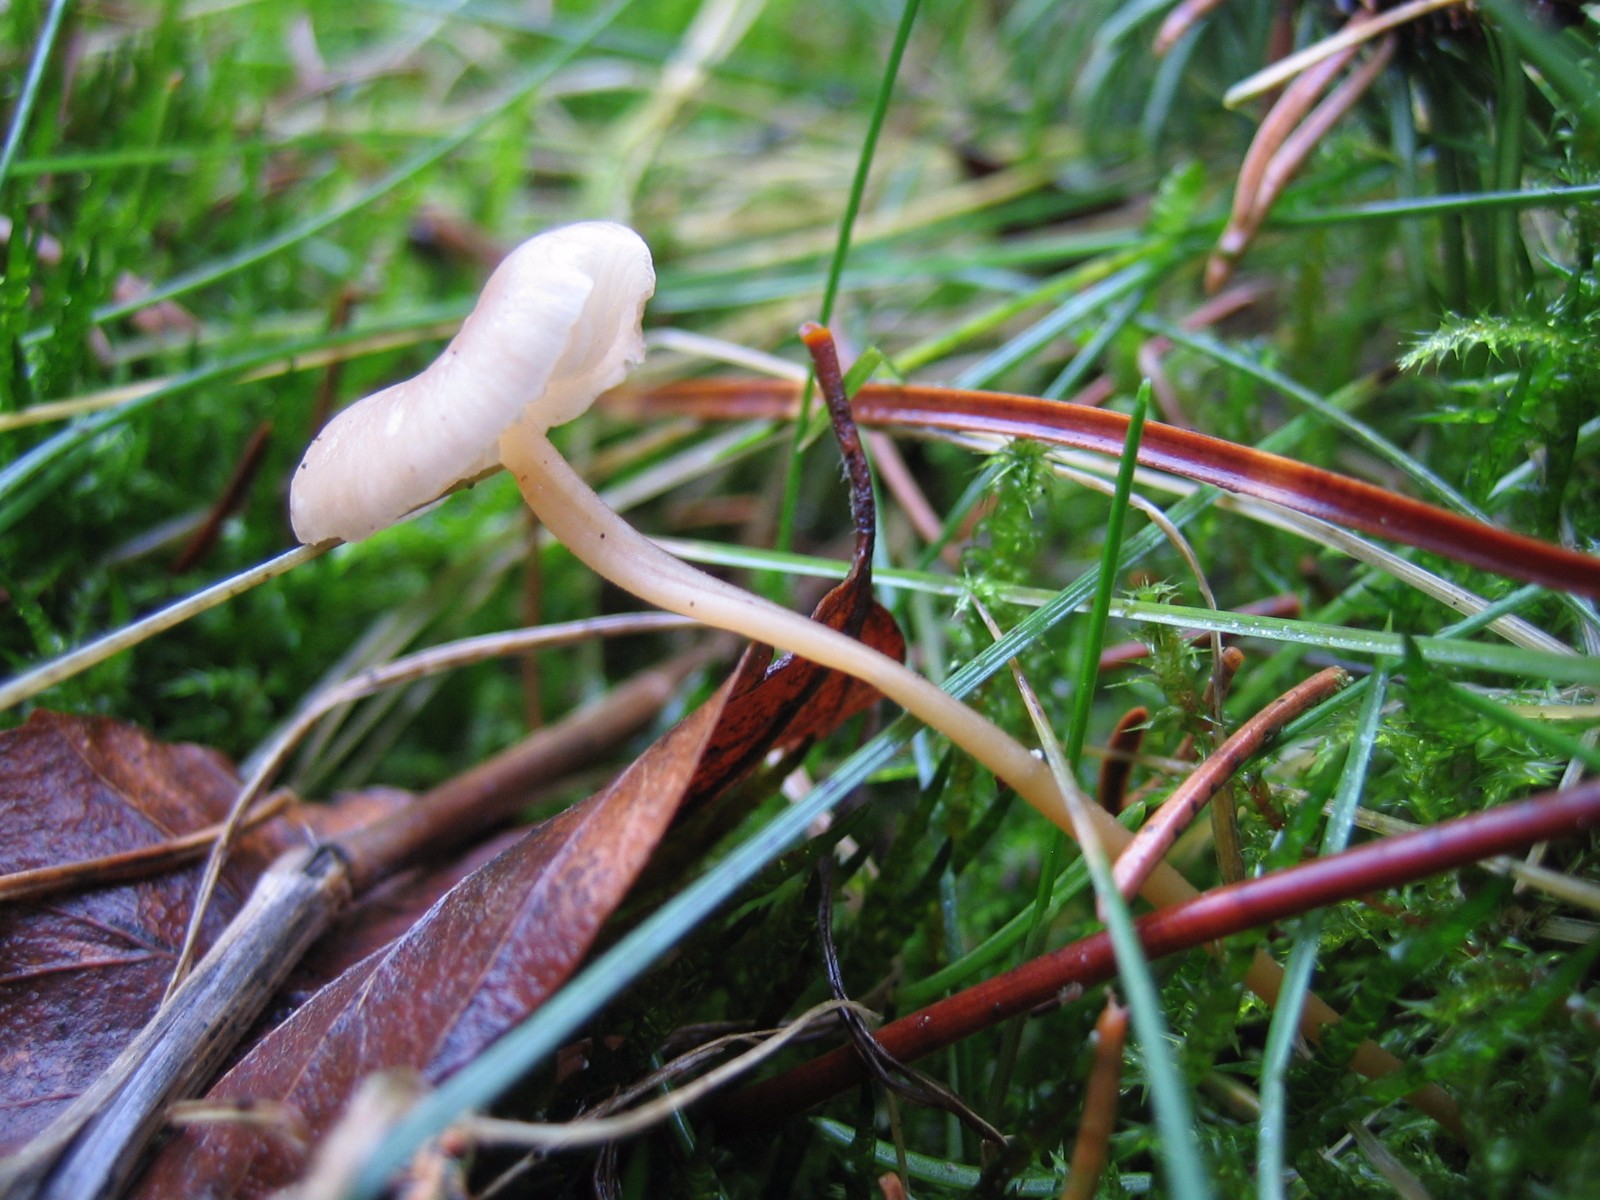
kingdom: Fungi
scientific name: Fungi
